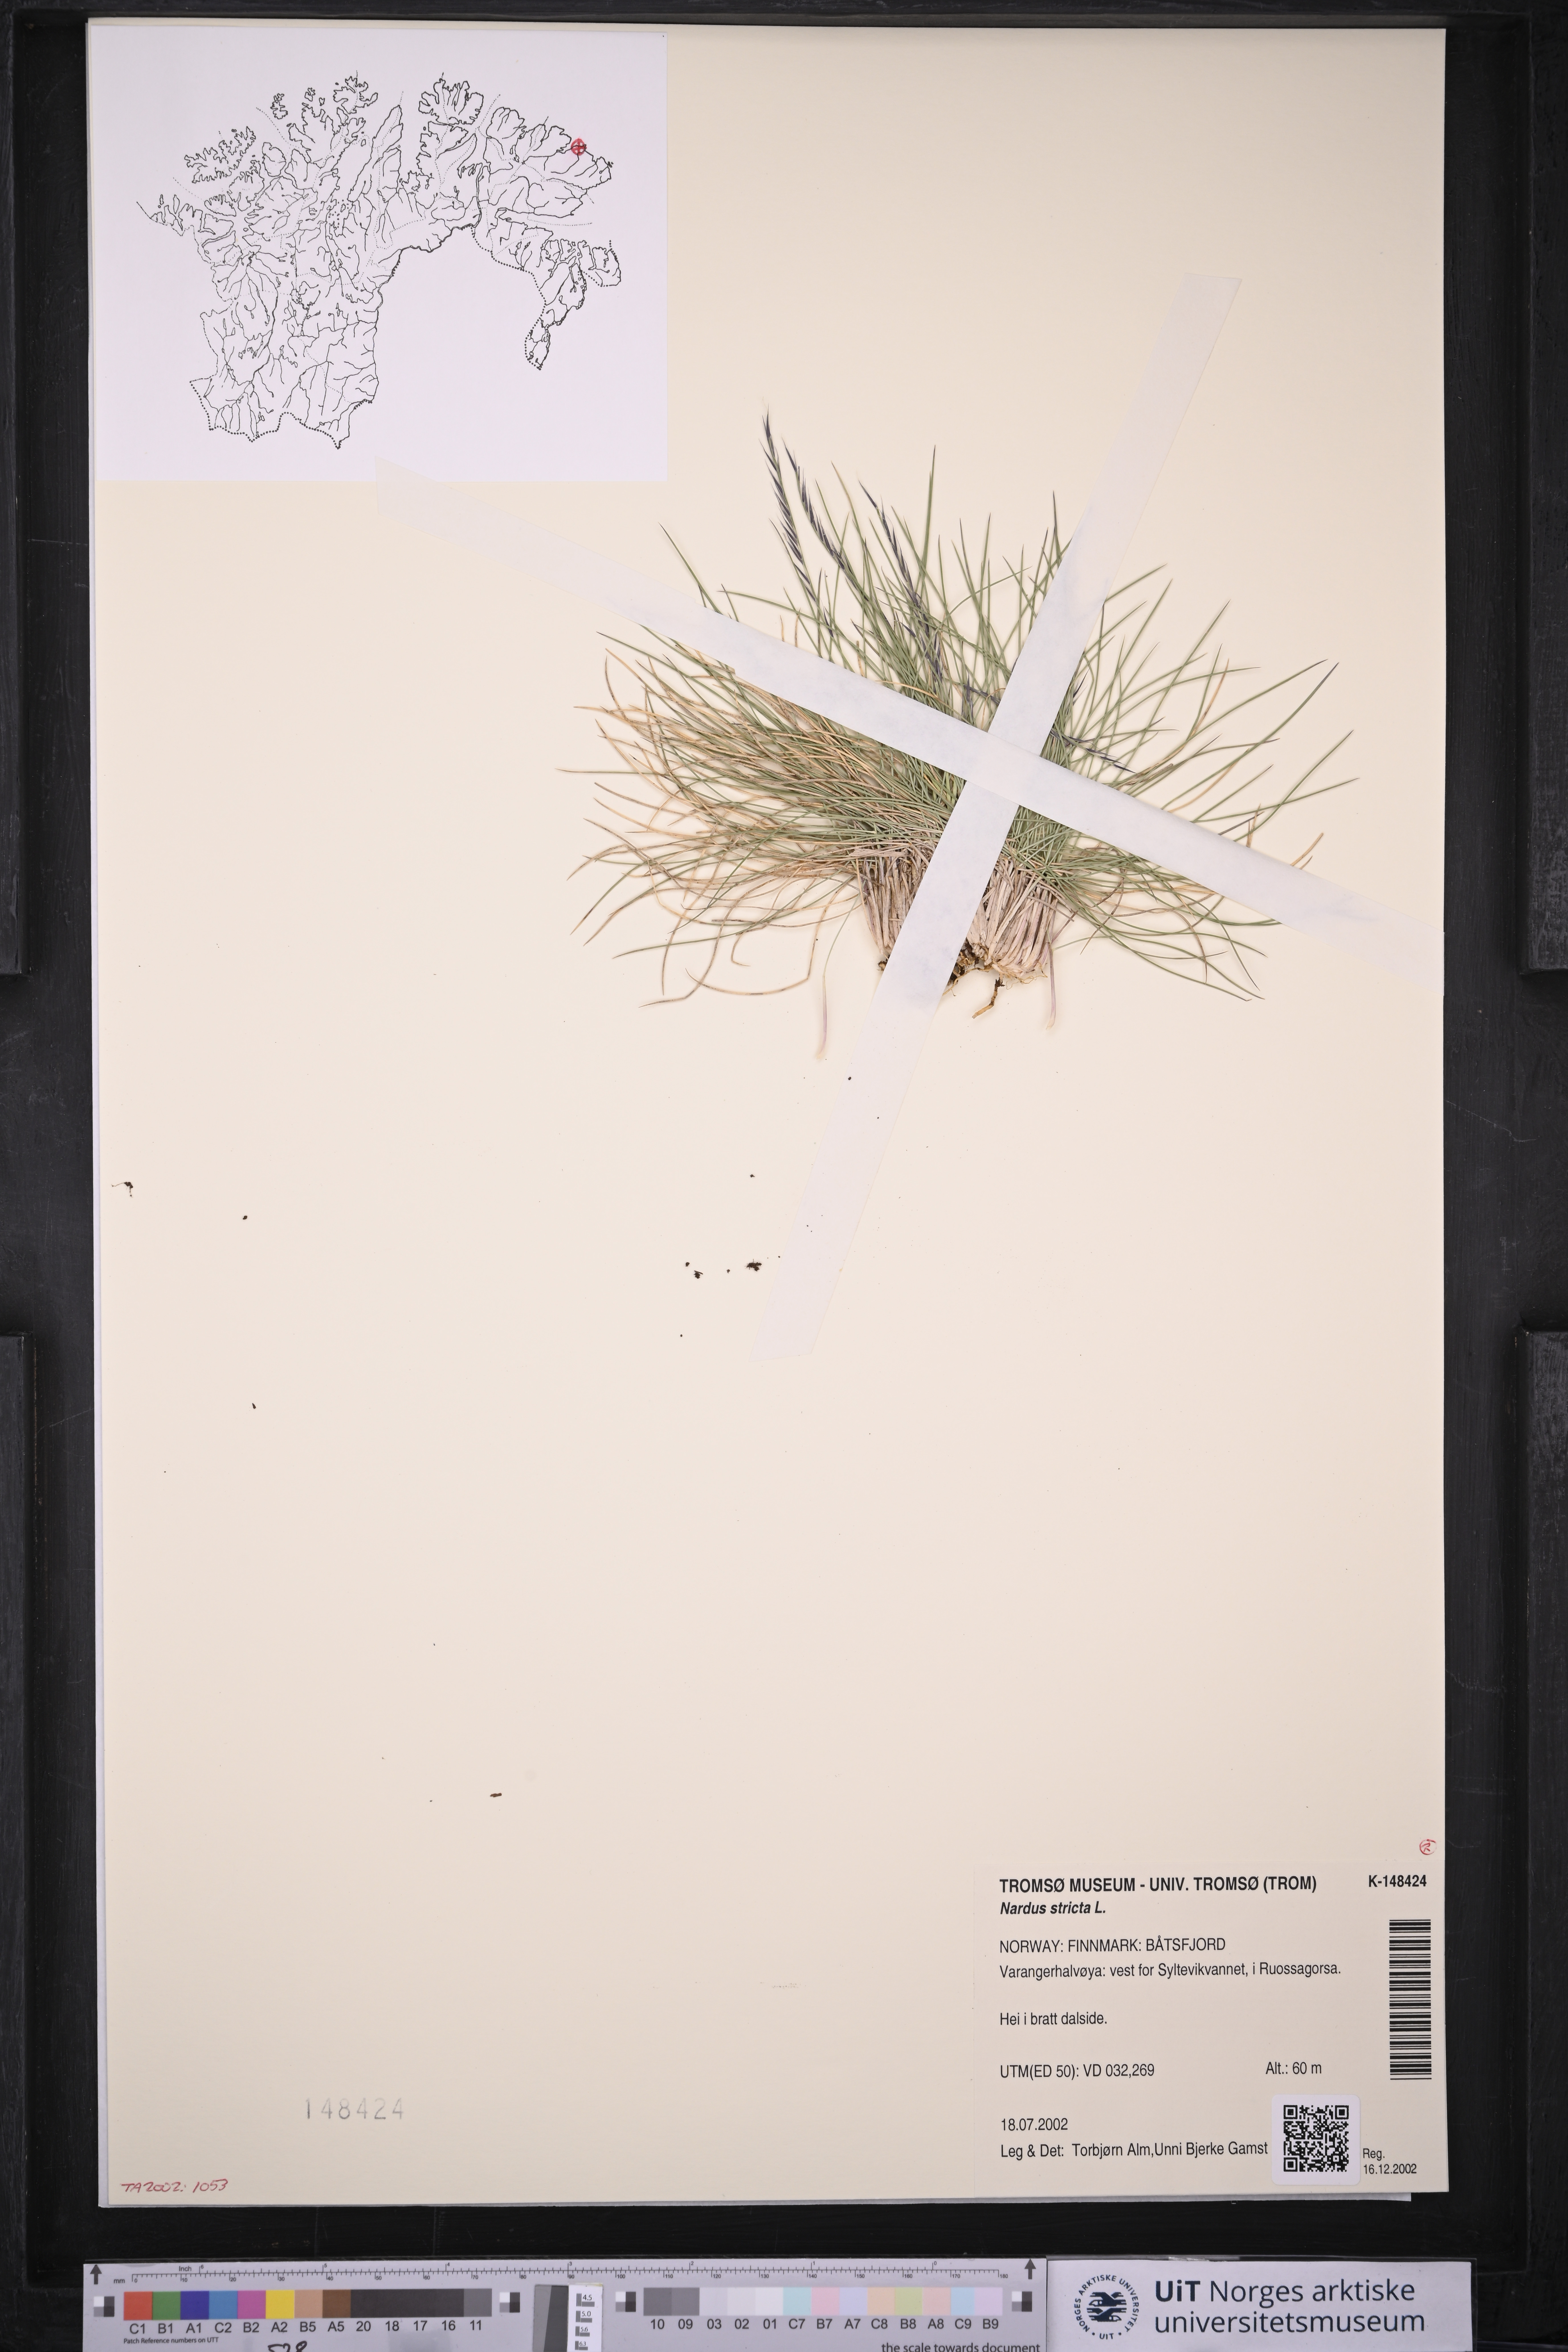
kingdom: Plantae
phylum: Tracheophyta
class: Liliopsida
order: Poales
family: Poaceae
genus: Nardus
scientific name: Nardus stricta
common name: Mat-grass
